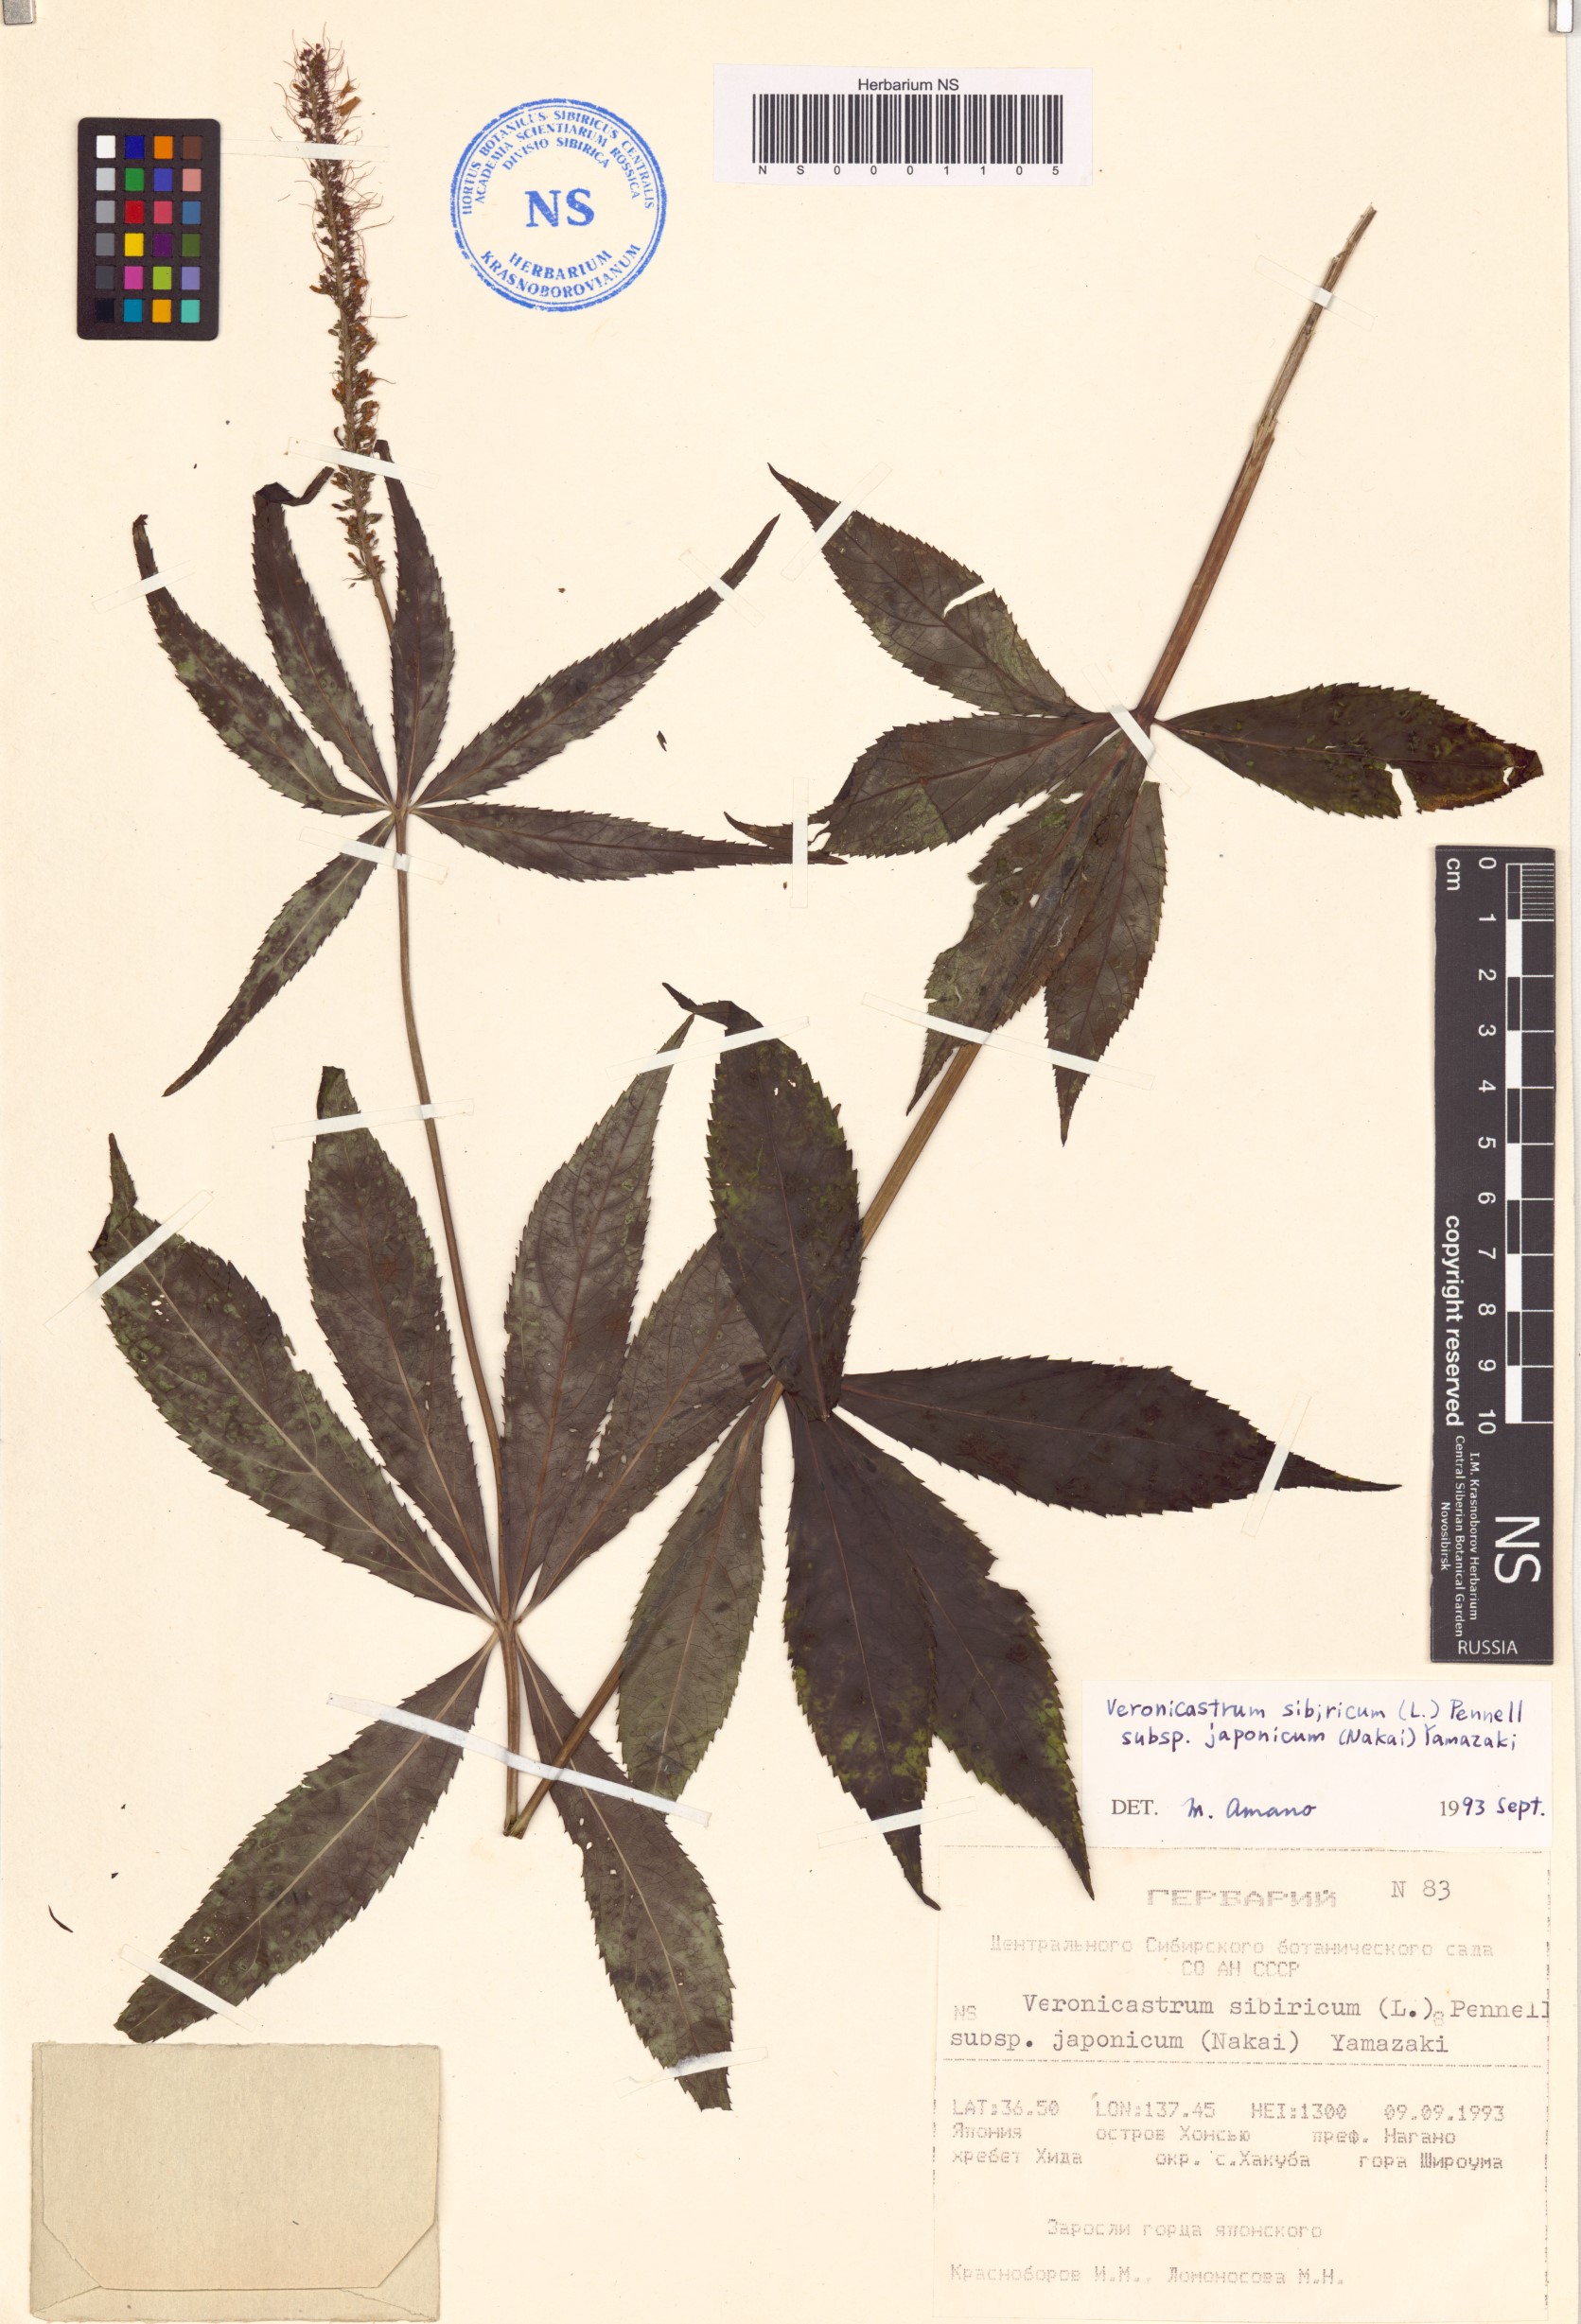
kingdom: Plantae
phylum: Tracheophyta
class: Magnoliopsida
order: Lamiales
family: Plantaginaceae
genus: Veronicastrum
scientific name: Veronicastrum sibiricum
